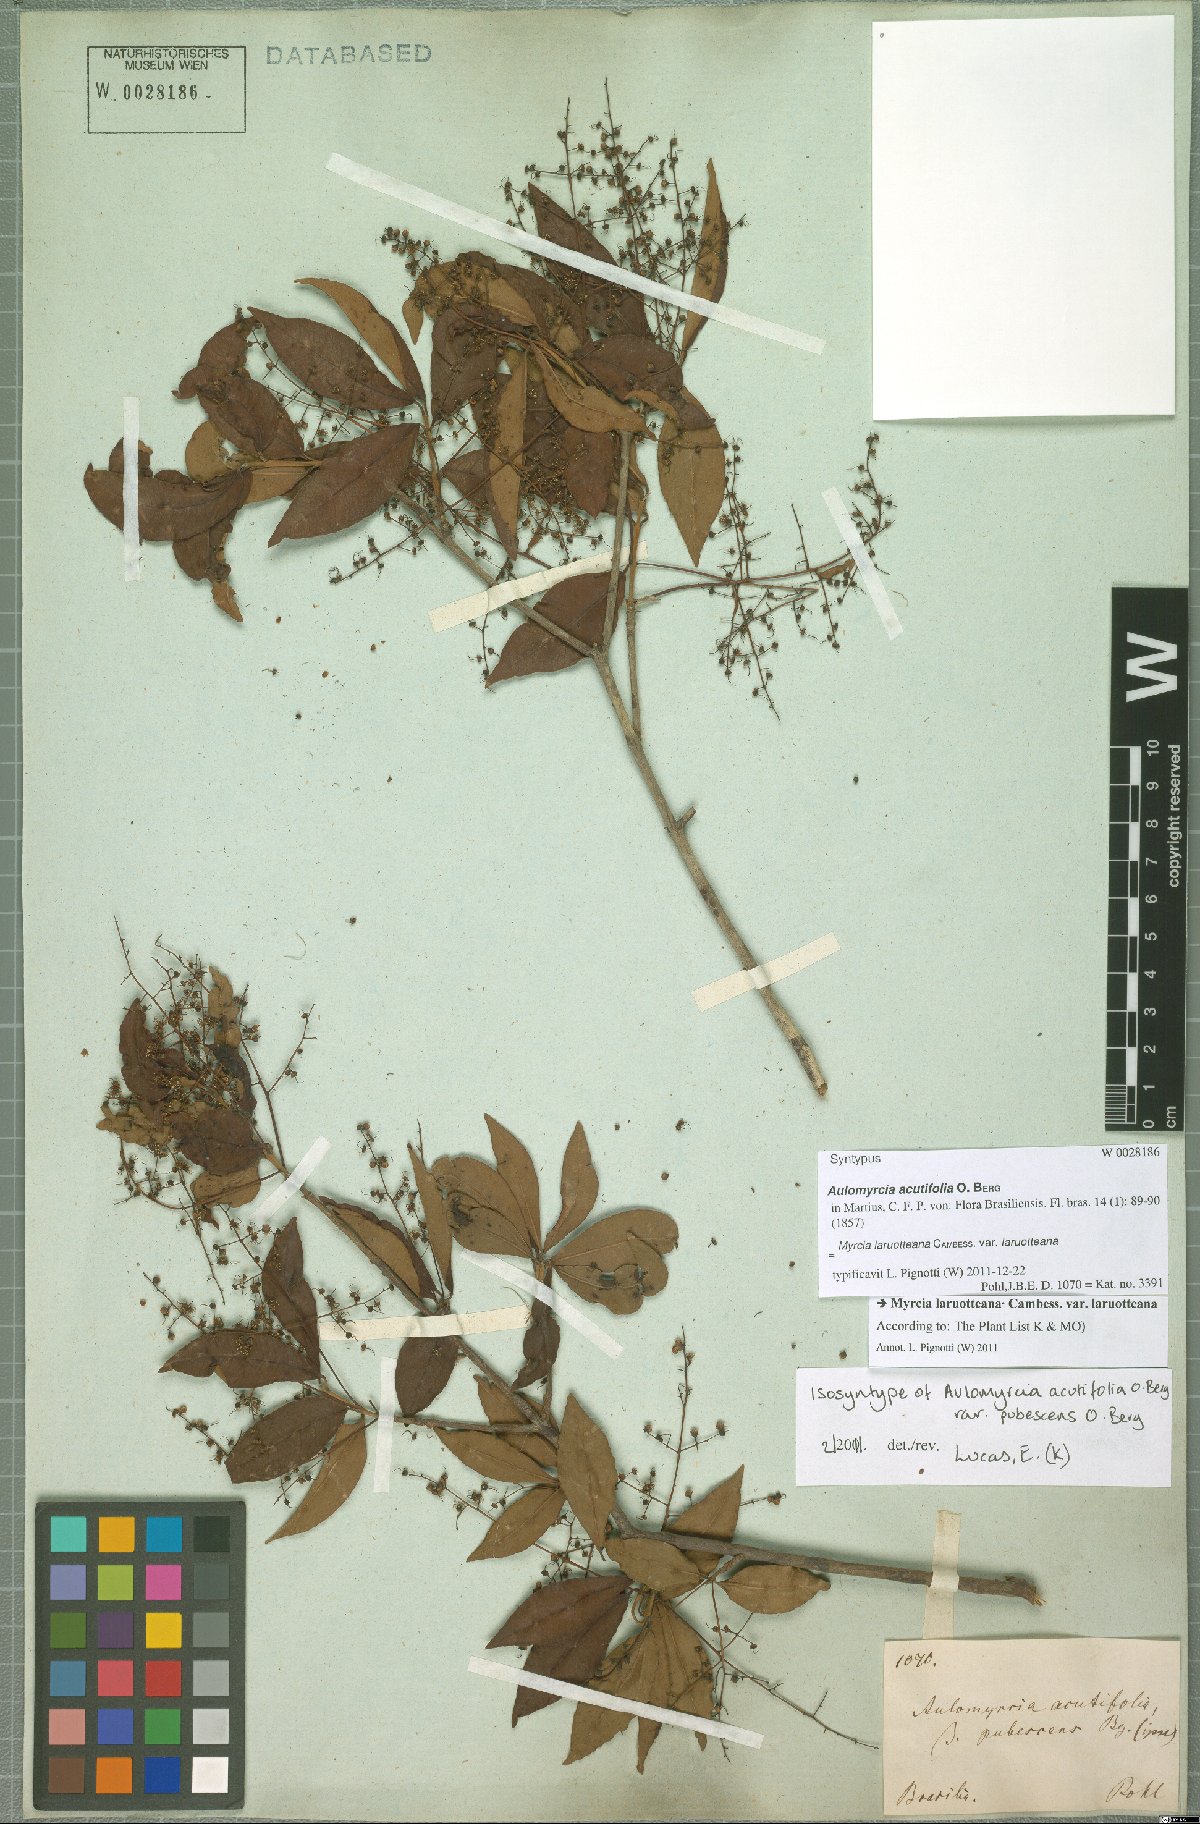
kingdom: Plantae
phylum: Tracheophyta
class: Magnoliopsida
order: Myrtales
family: Myrtaceae
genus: Myrcia
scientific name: Myrcia selloi
